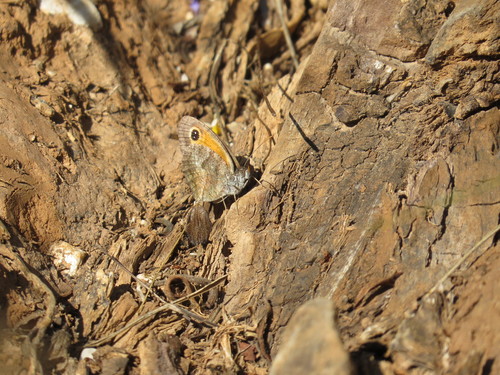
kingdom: Animalia
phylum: Arthropoda
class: Insecta
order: Lepidoptera
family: Nymphalidae
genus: Pyronia
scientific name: Pyronia cecilia
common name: Southern gatekeeper
